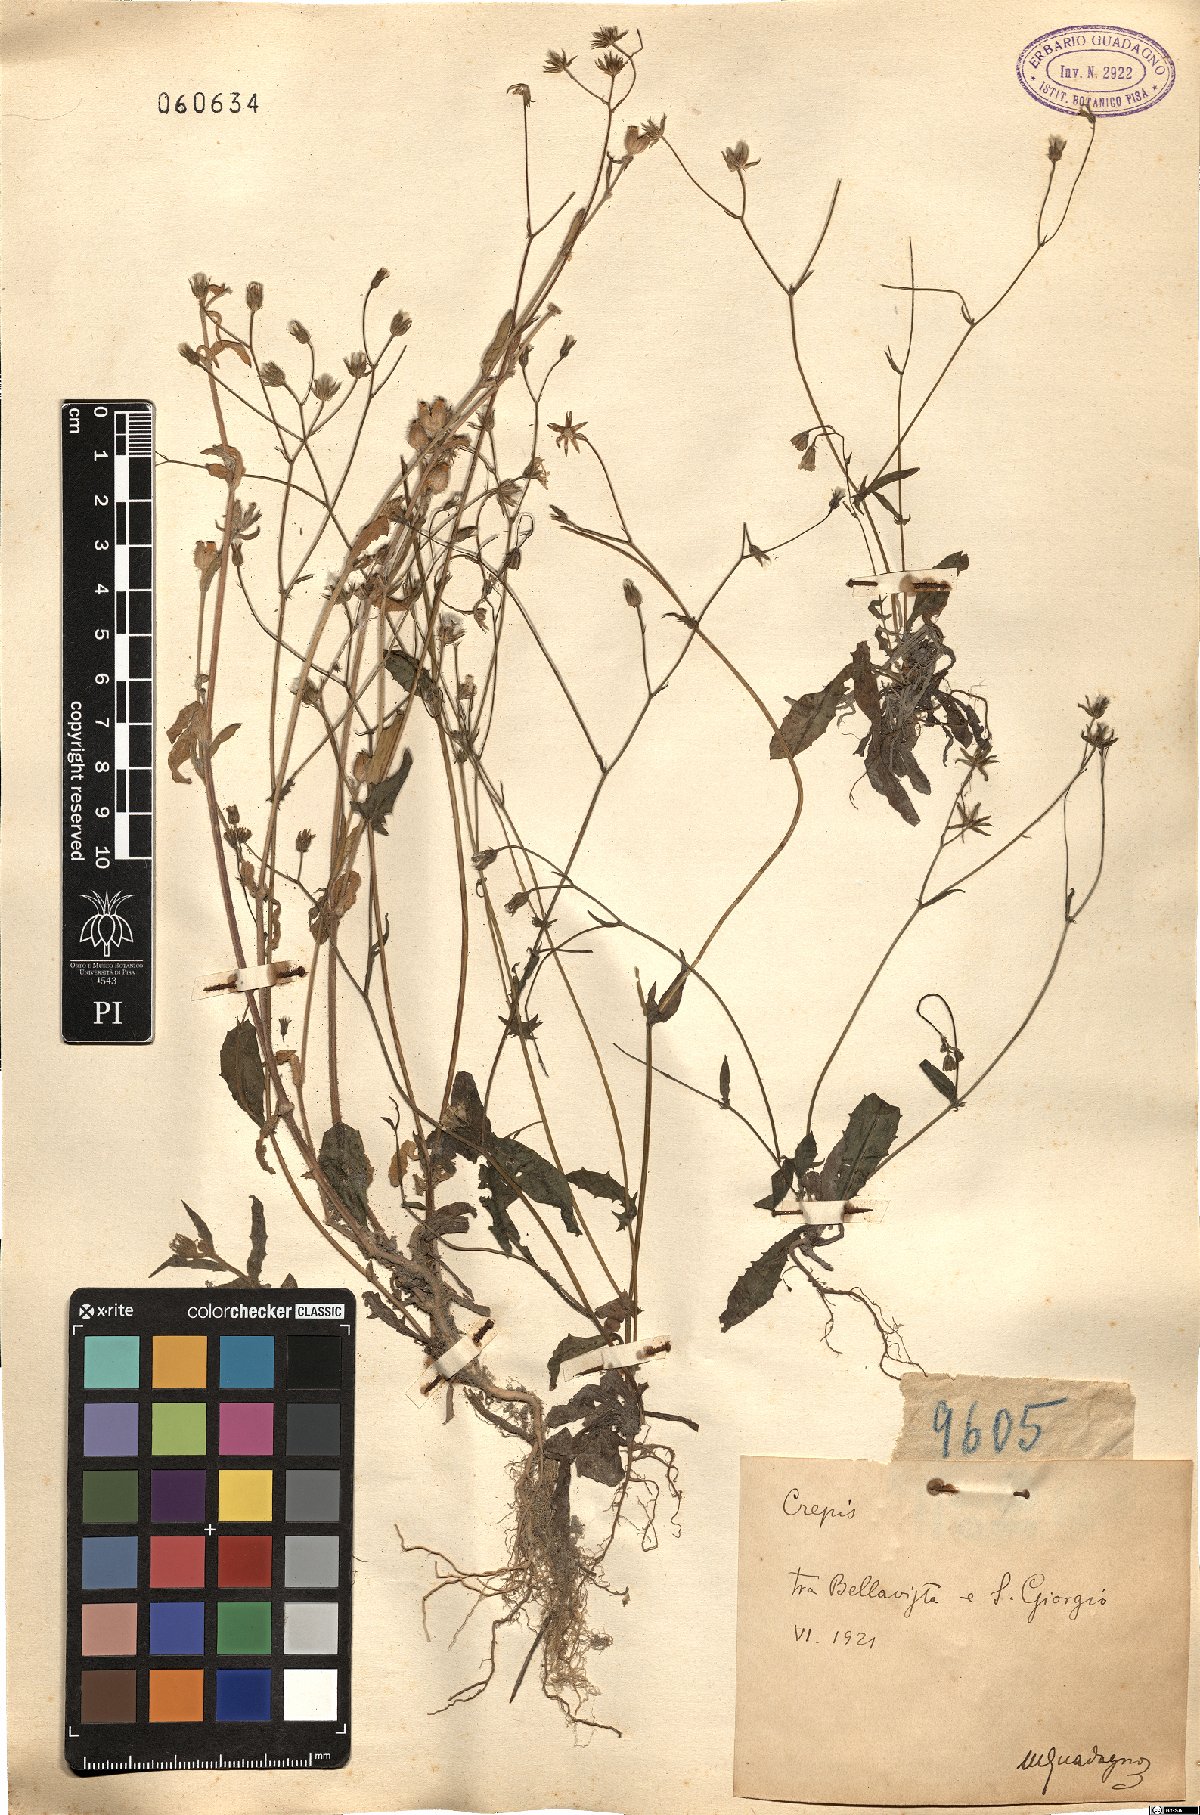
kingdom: Plantae
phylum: Tracheophyta
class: Magnoliopsida
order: Asterales
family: Asteraceae
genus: Crepis
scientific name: Crepis
